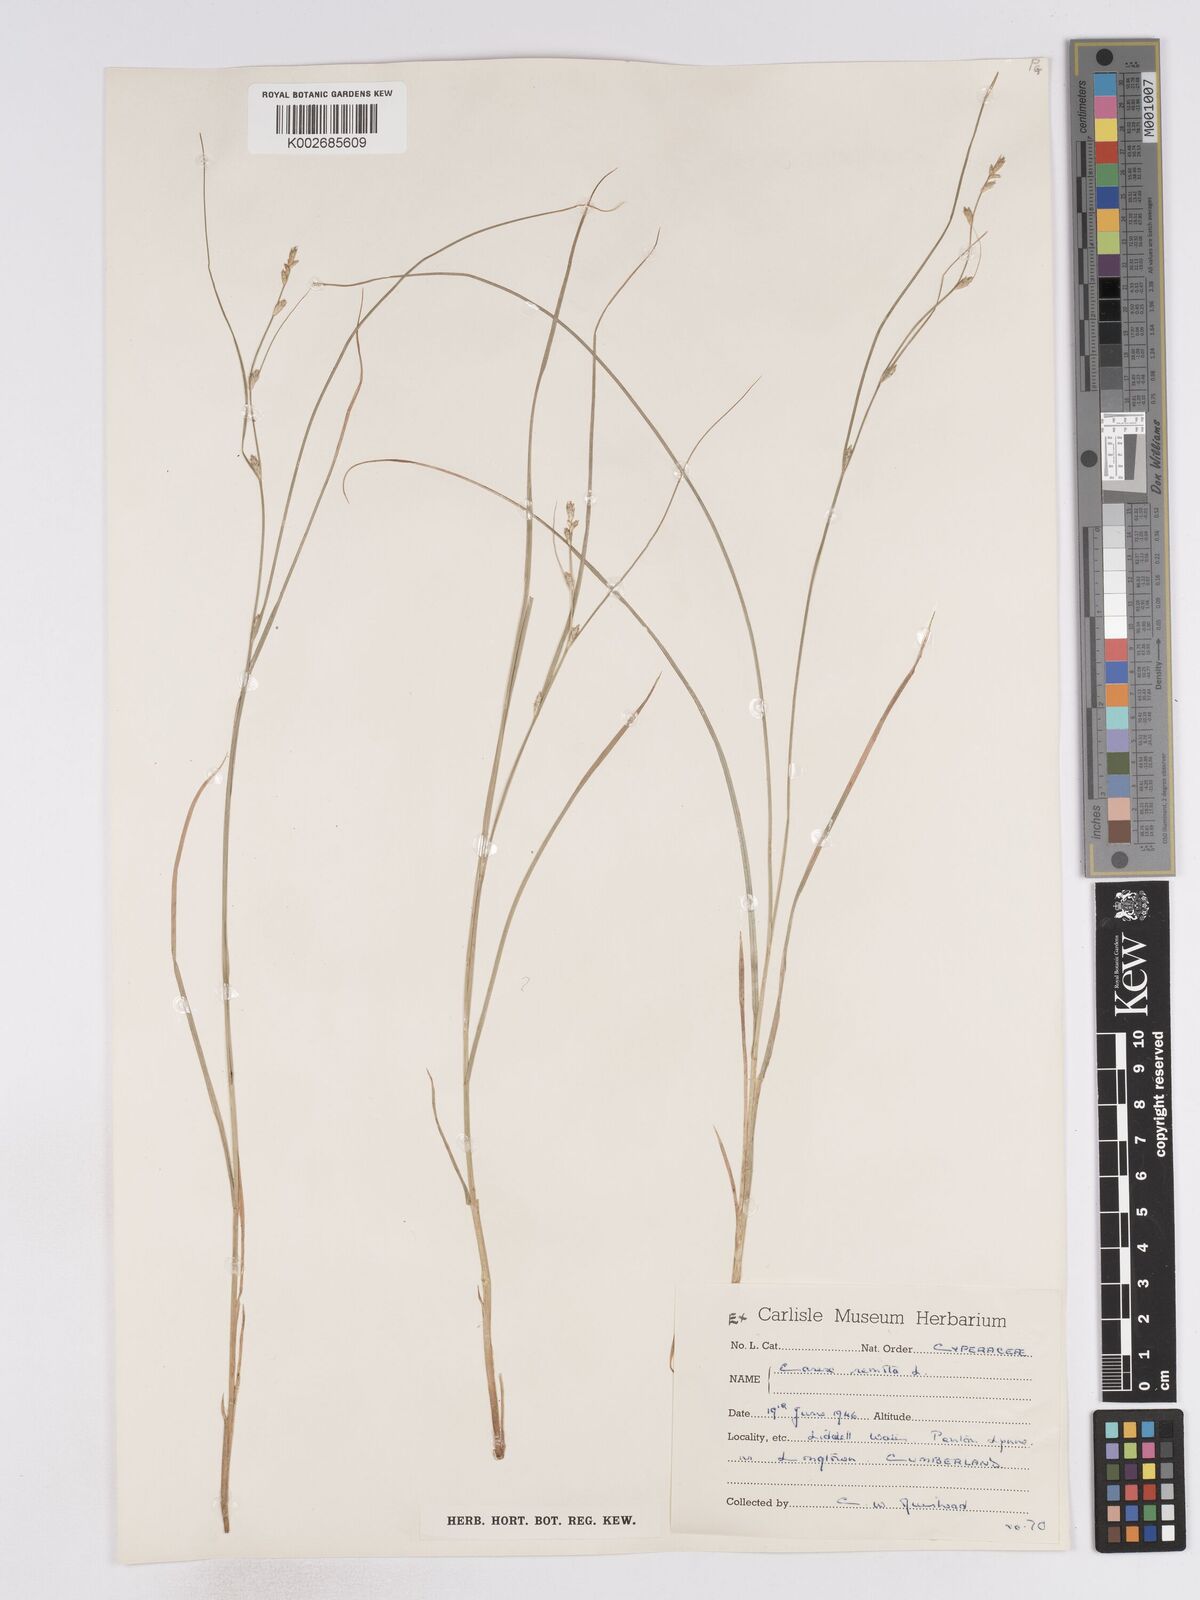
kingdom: Plantae
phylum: Tracheophyta
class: Liliopsida
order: Poales
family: Cyperaceae
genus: Carex
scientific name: Carex remota
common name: Remote sedge
